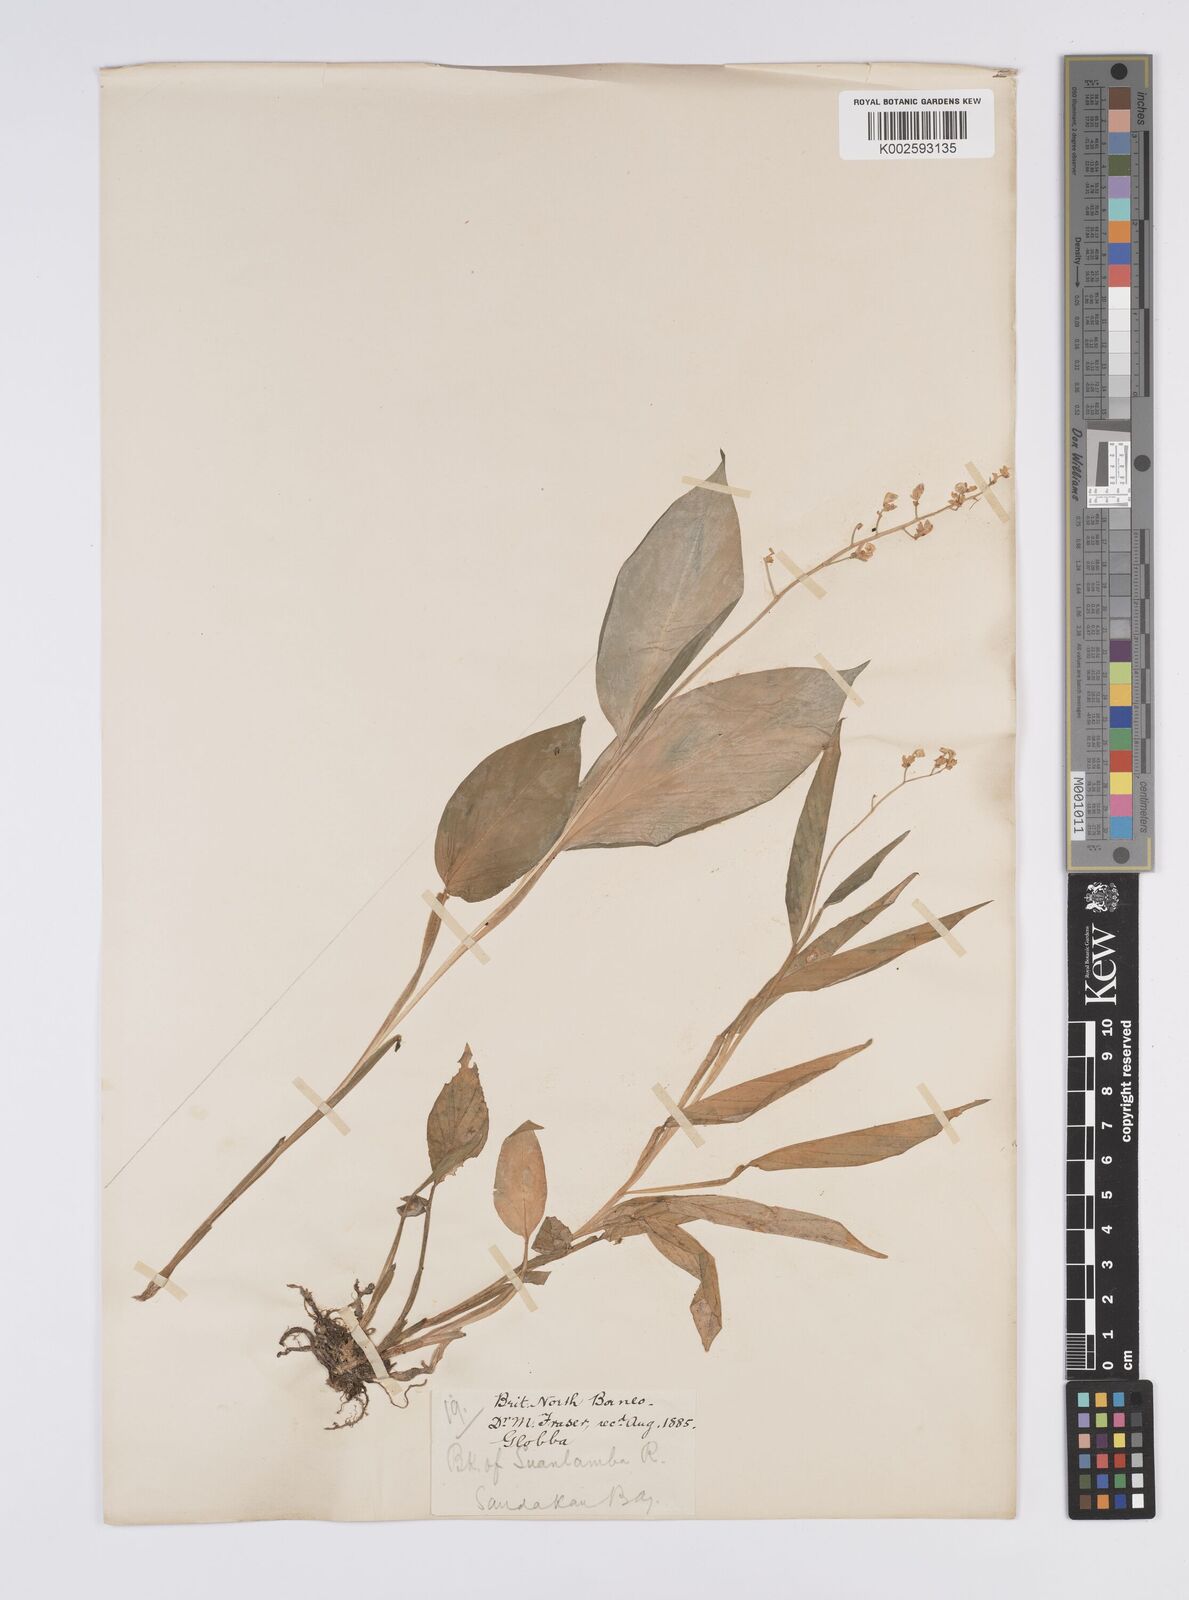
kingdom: Plantae
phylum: Tracheophyta
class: Liliopsida
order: Zingiberales
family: Zingiberaceae
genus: Globba
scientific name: Globba pendula
